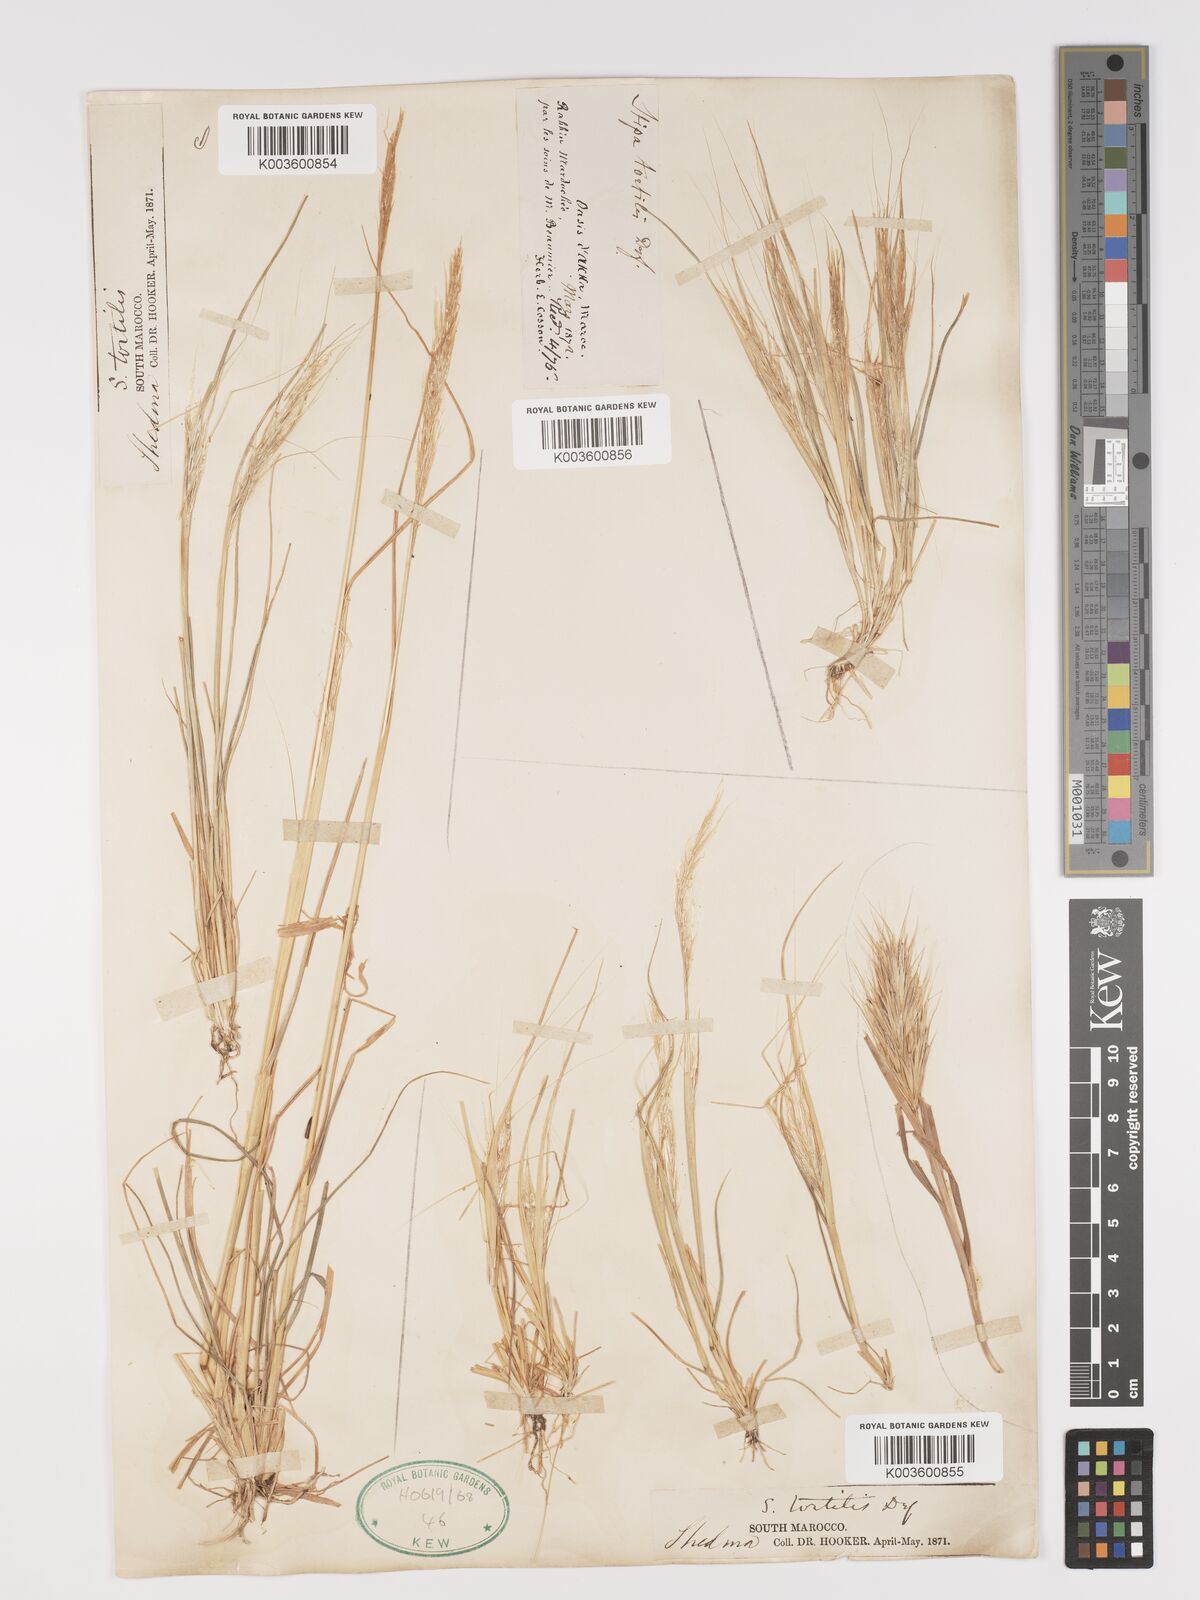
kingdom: Plantae
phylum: Tracheophyta
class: Liliopsida
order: Poales
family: Poaceae
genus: Stipellula
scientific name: Stipellula capensis
